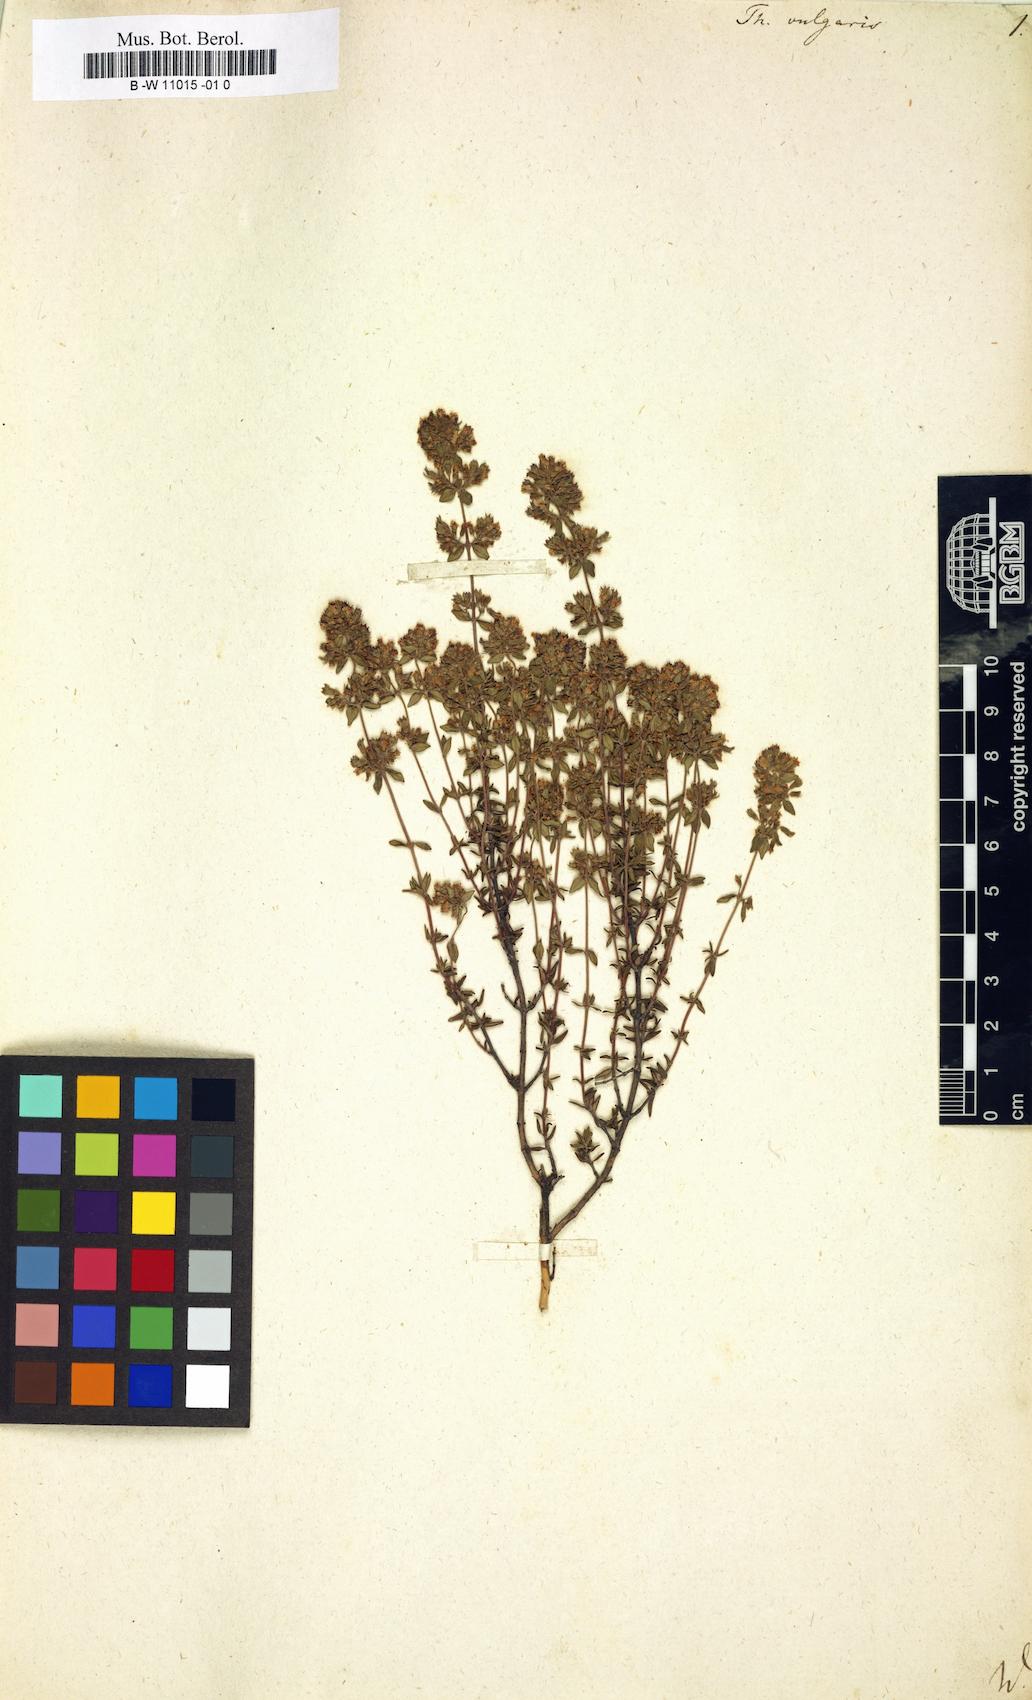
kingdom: Plantae
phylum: Tracheophyta
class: Magnoliopsida
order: Lamiales
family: Lamiaceae
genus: Thymus
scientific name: Thymus vulgaris
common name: Garden thyme
